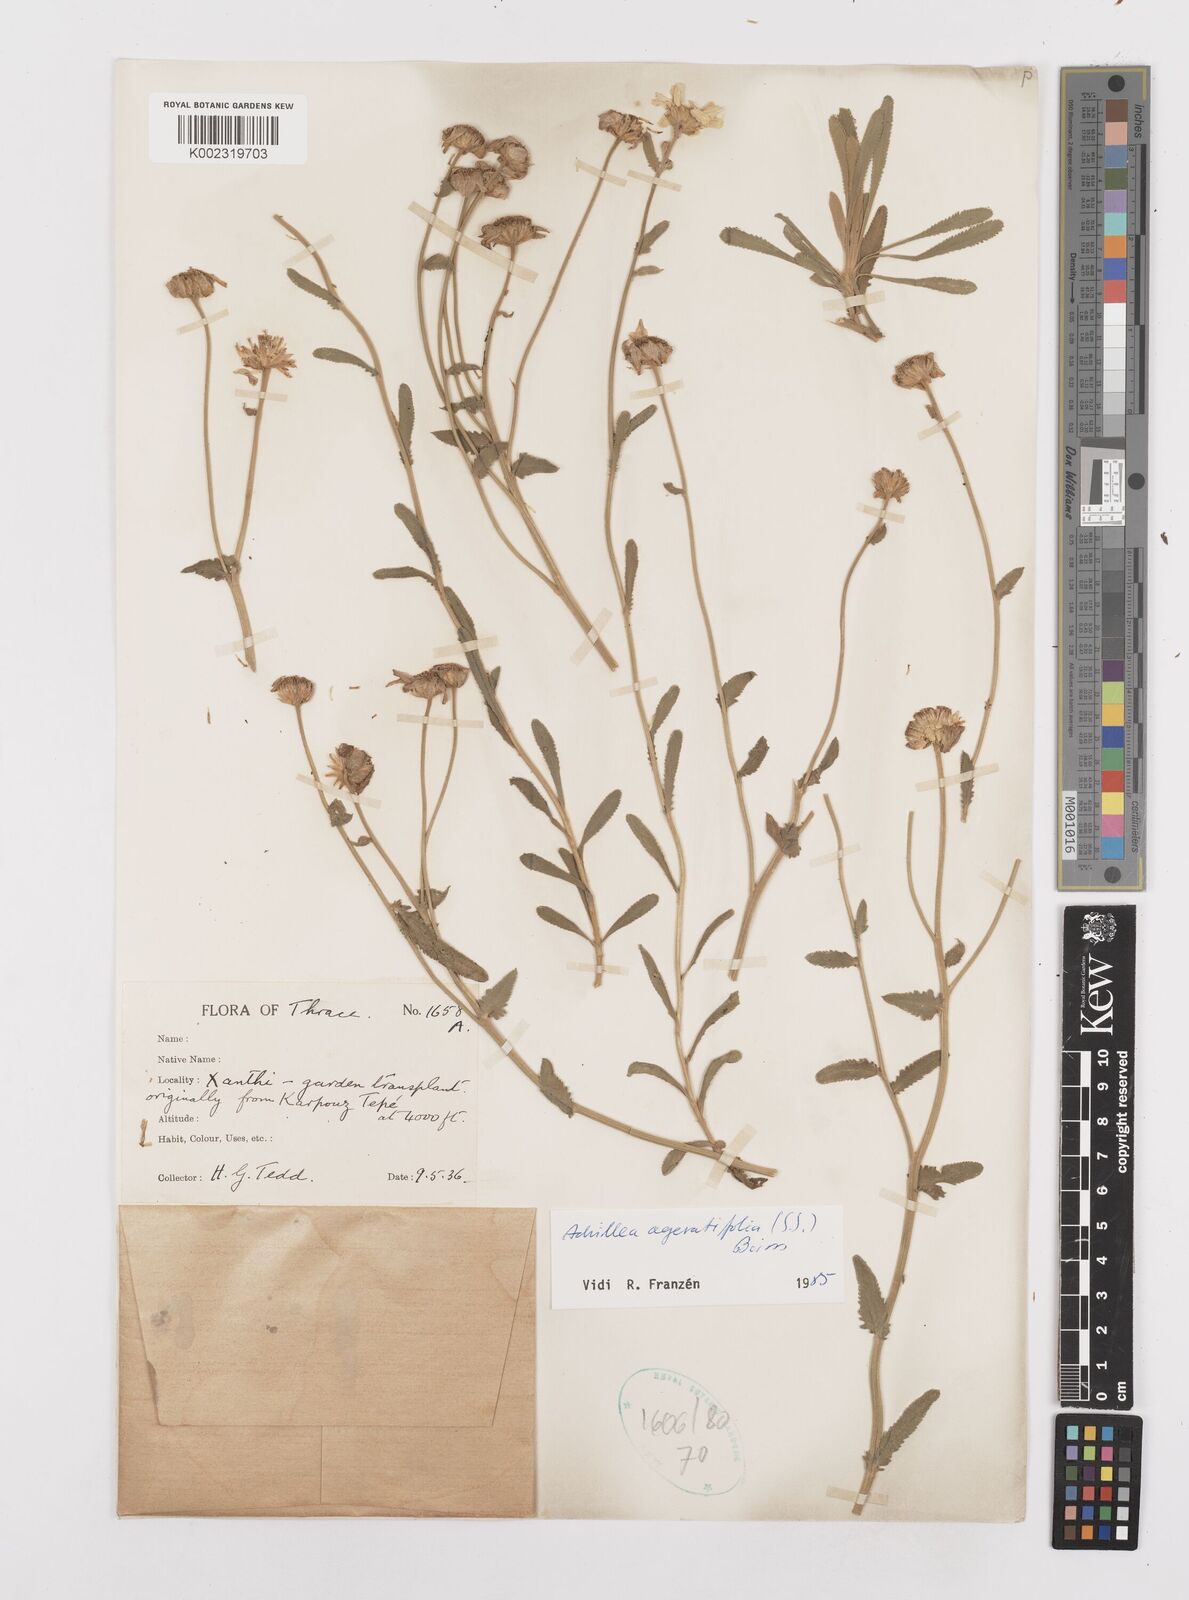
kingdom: Plantae
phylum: Tracheophyta
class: Magnoliopsida
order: Asterales
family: Asteraceae
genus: Achillea
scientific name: Achillea ageratifolia
